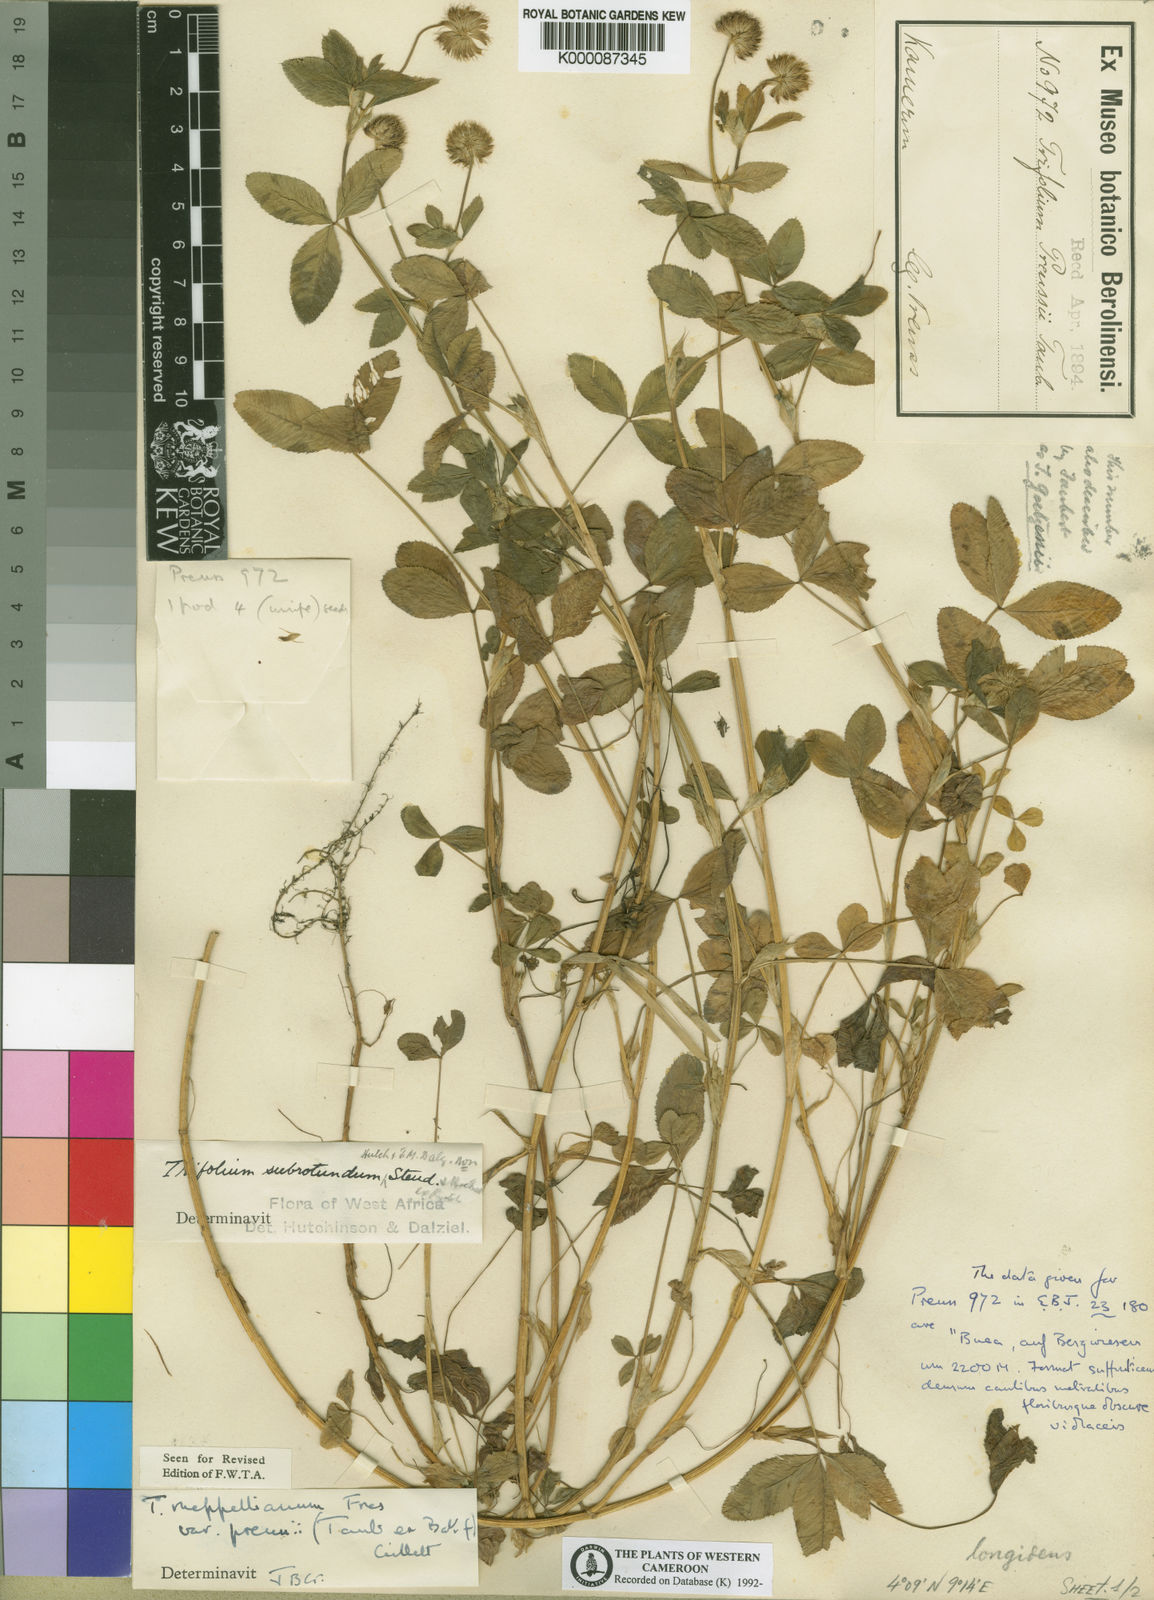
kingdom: Plantae
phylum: Tracheophyta
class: Magnoliopsida
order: Fabales
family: Fabaceae
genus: Trifolium
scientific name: Trifolium rueppellianum
